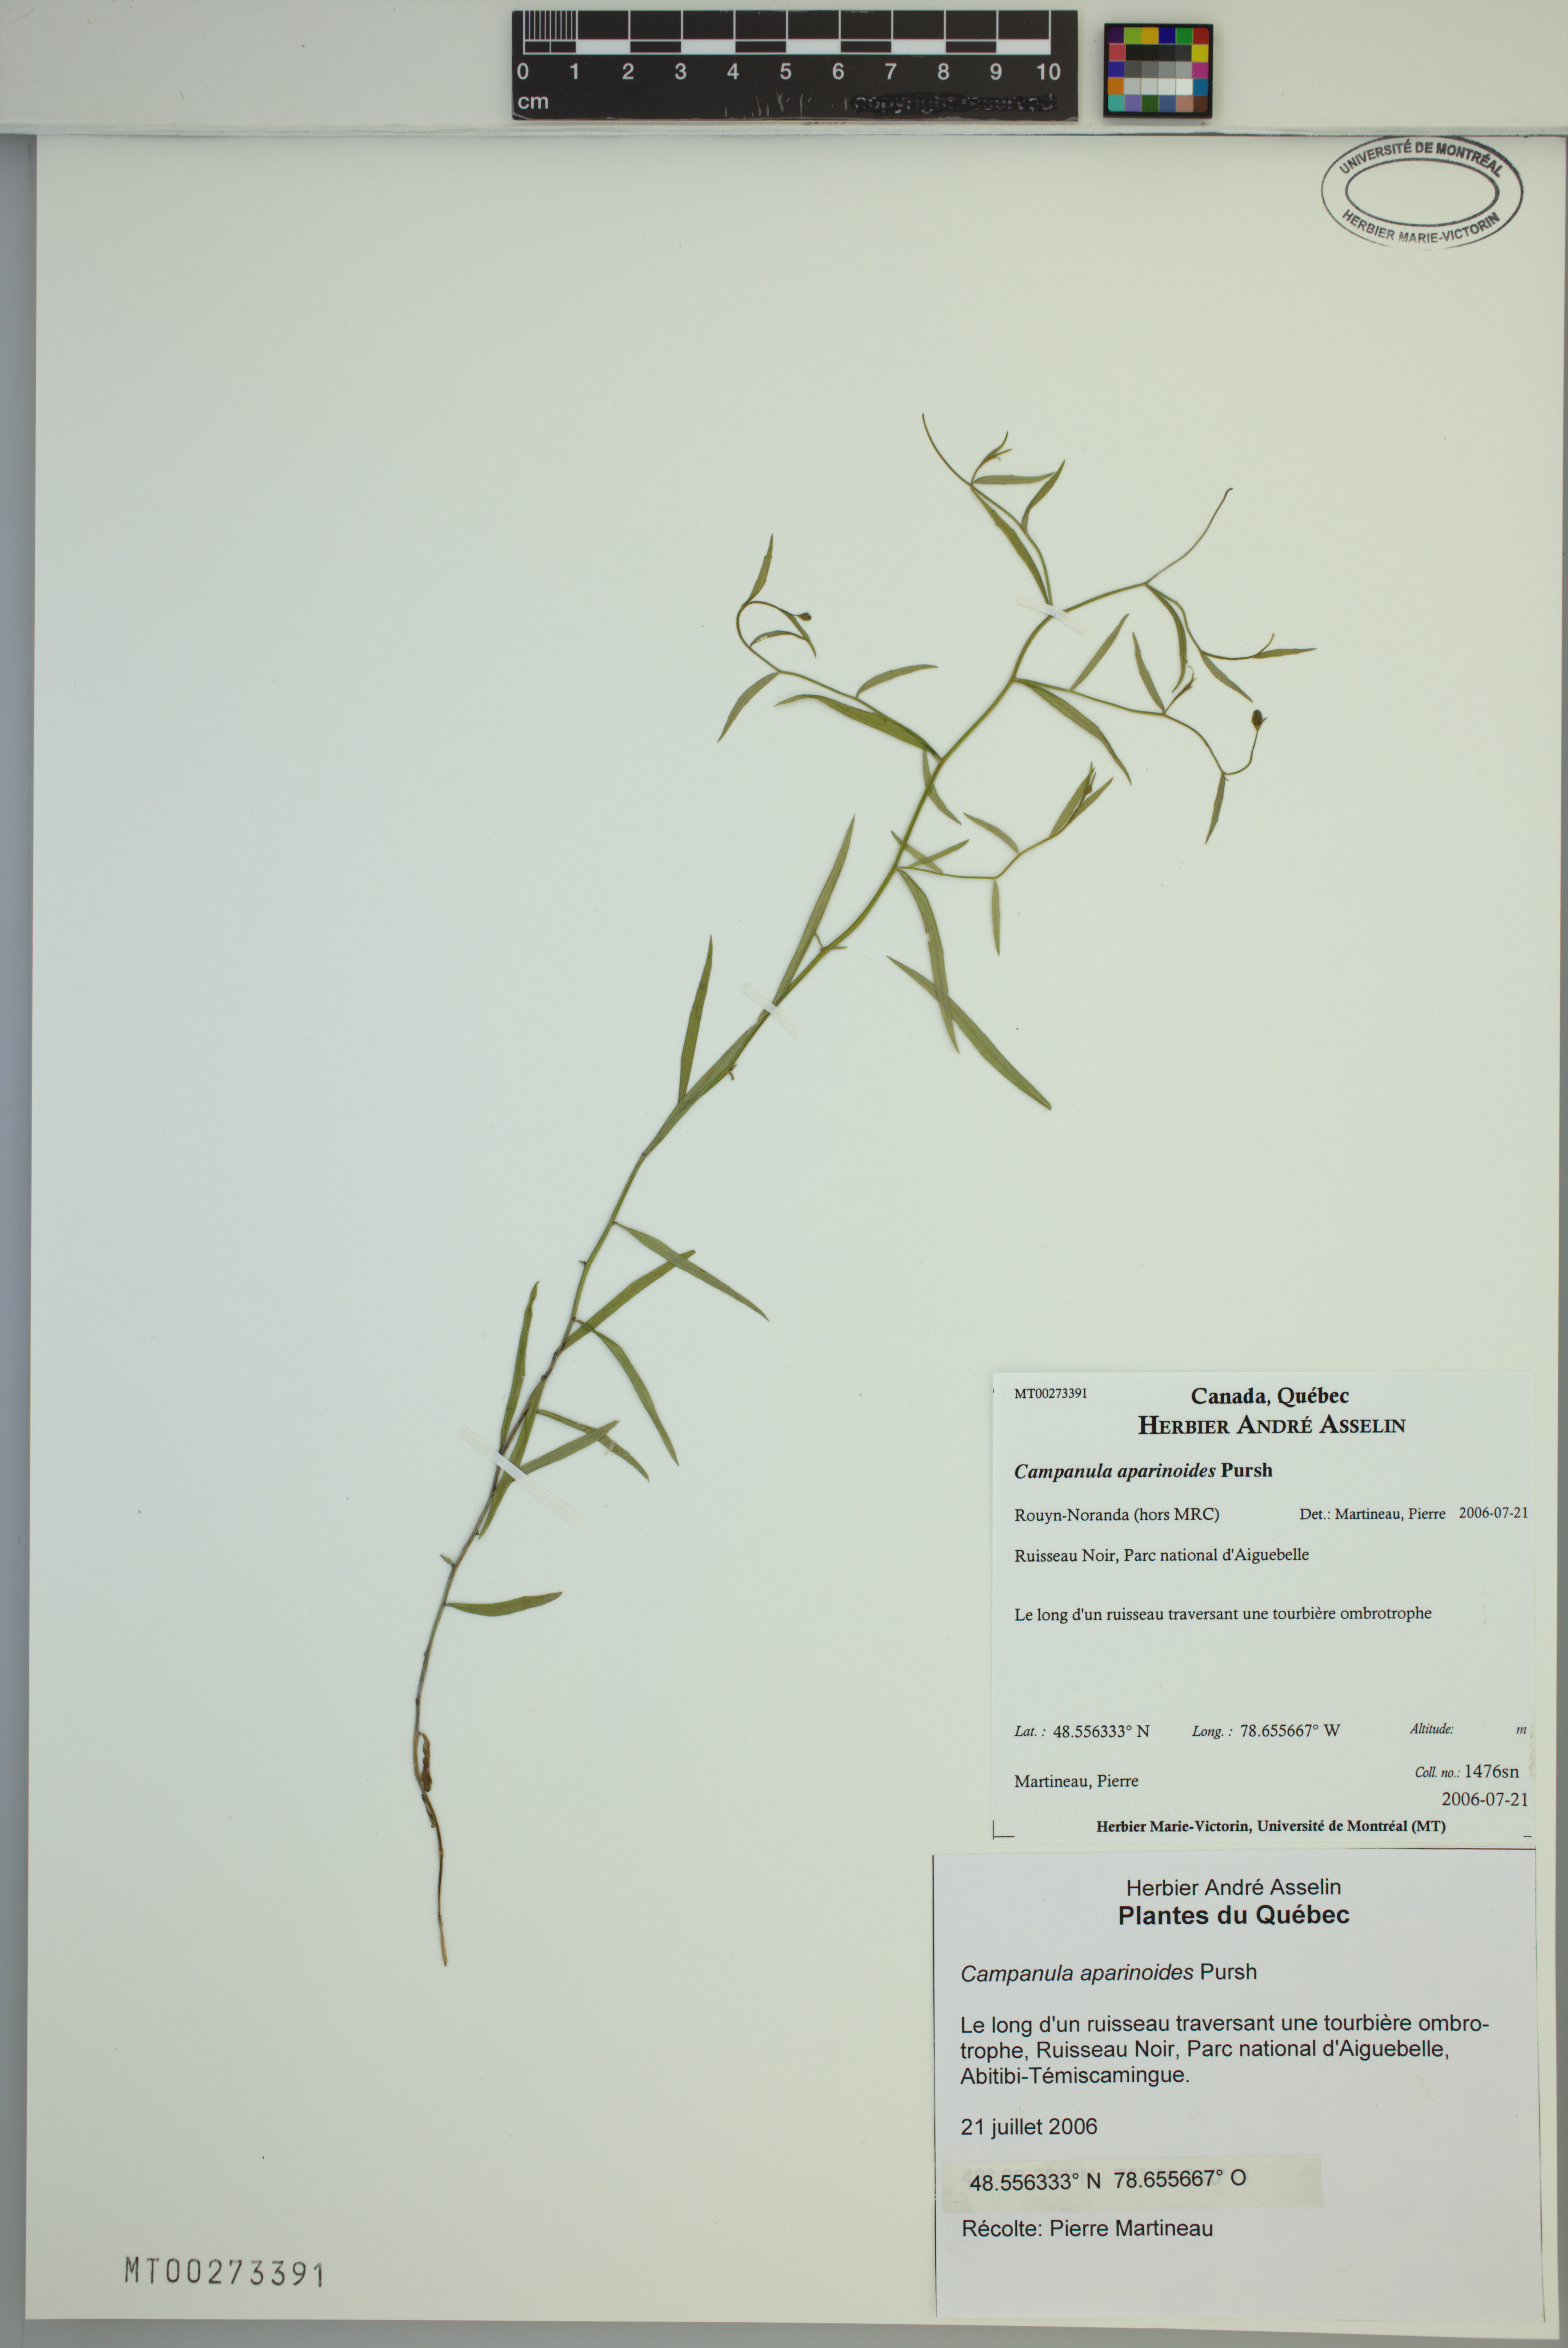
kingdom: Plantae
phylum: Tracheophyta
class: Magnoliopsida
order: Asterales
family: Campanulaceae
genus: Palustricodon
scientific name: Palustricodon aparinoides
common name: Bedstraw bellflower
